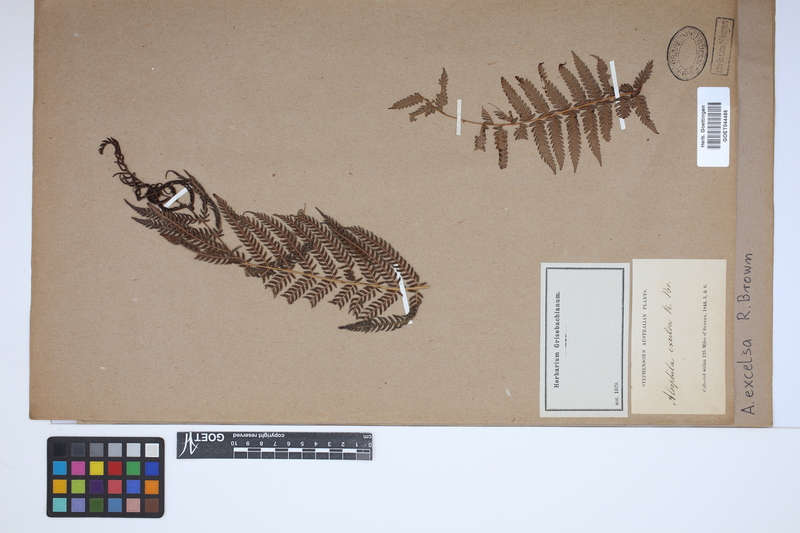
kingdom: Plantae
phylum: Tracheophyta
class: Polypodiopsida
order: Cyatheales
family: Cyatheaceae
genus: Sphaeropteris
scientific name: Sphaeropteris excelsa
